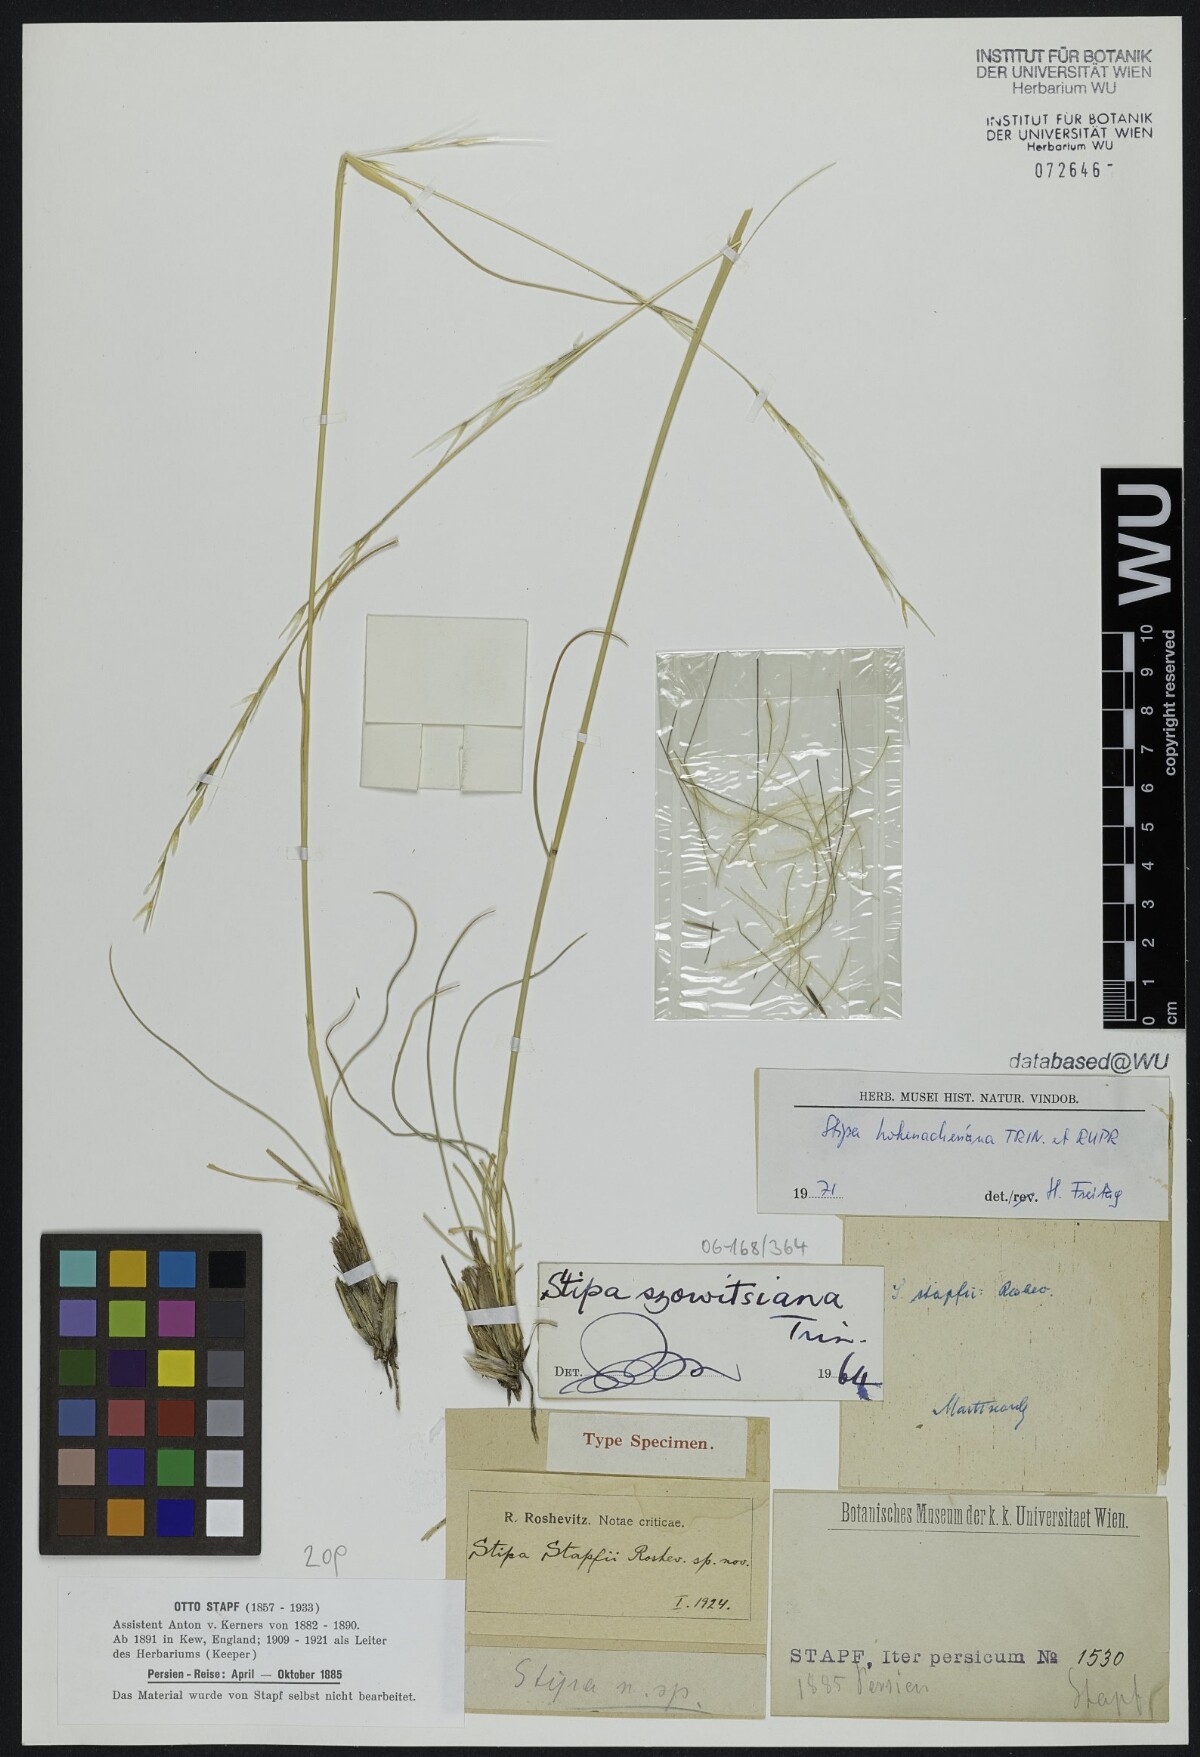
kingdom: Plantae
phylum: Tracheophyta
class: Liliopsida
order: Poales
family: Poaceae
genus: Stipa
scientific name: Stipa assyriaca
